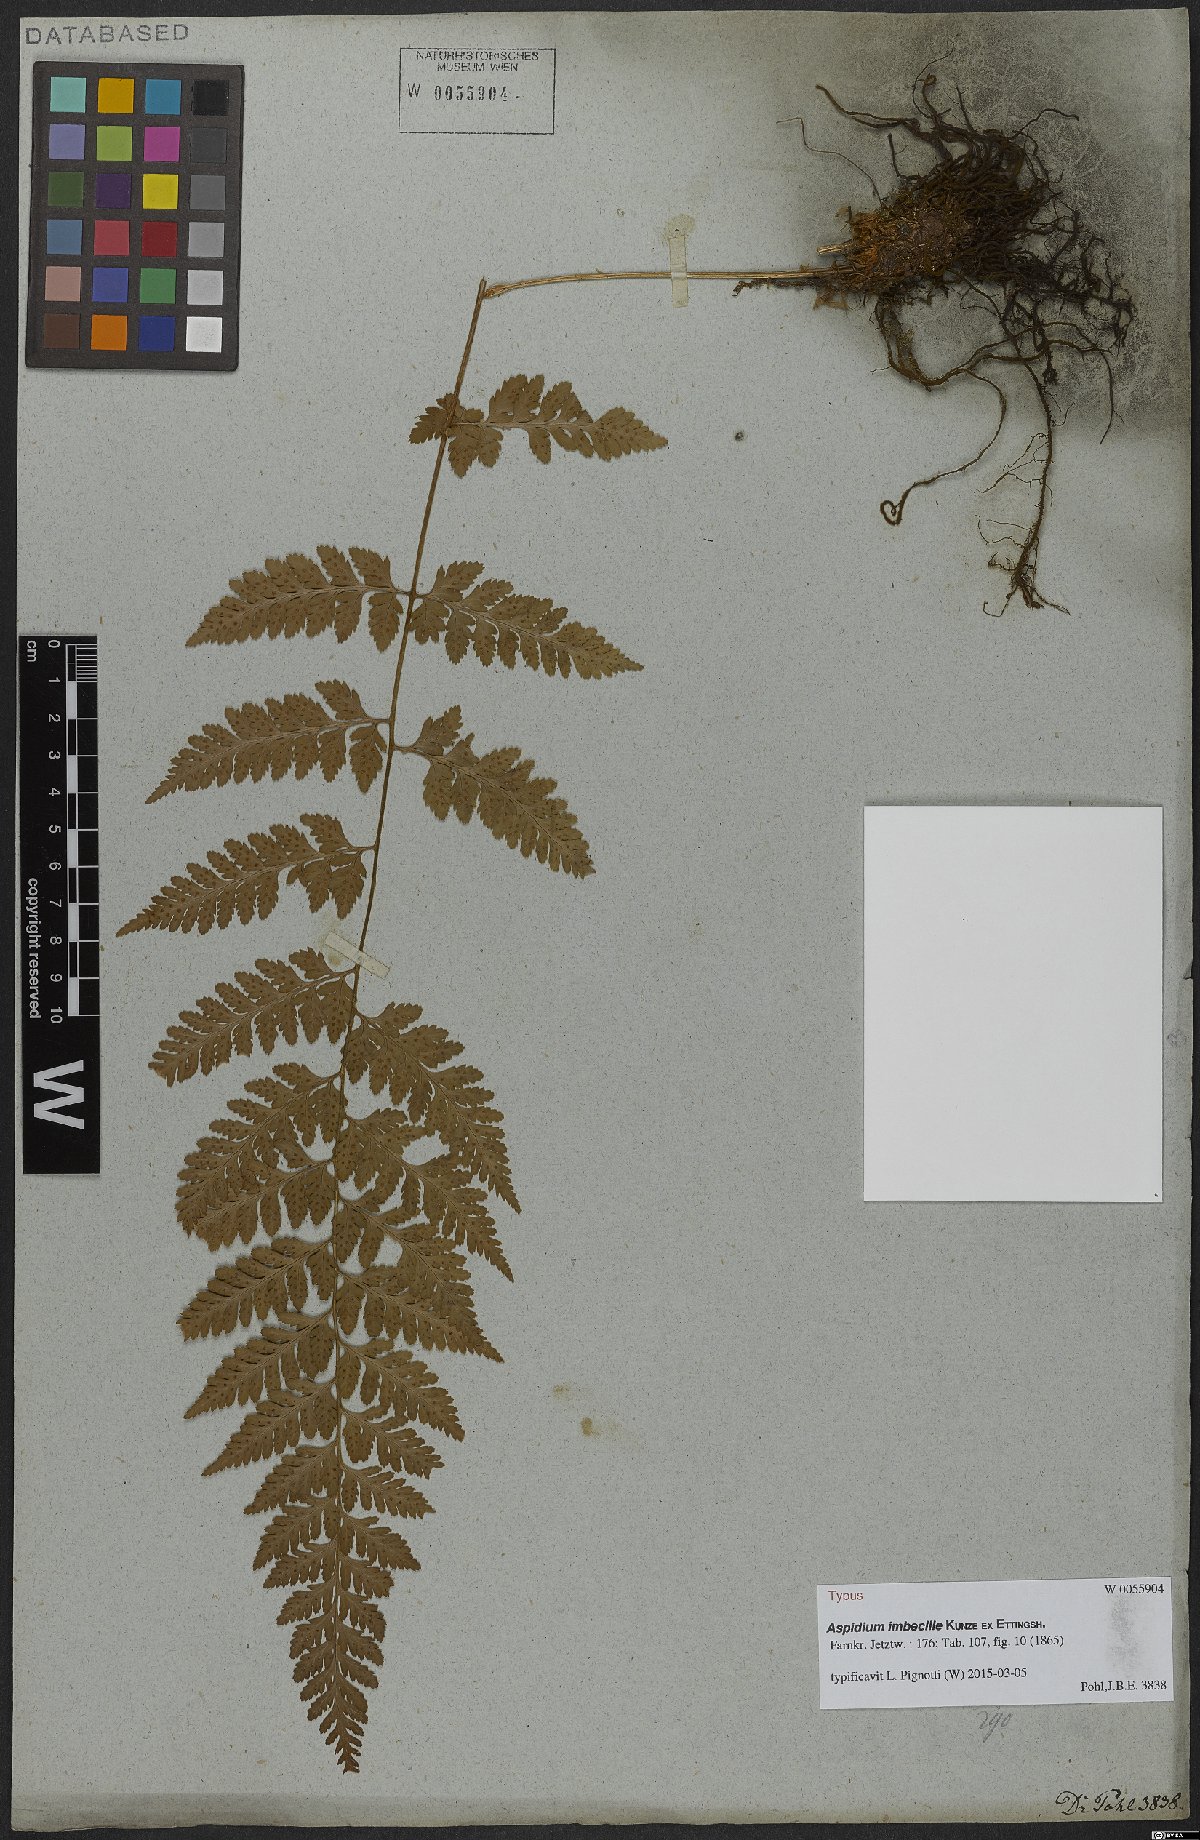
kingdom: Plantae
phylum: Tracheophyta
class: Polypodiopsida
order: Polypodiales
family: Dryopteridaceae
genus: Dryopteris
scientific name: Dryopteris patula
